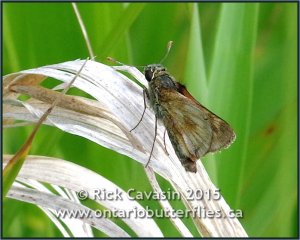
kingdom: Animalia
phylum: Arthropoda
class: Insecta
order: Lepidoptera
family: Hesperiidae
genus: Polites
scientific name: Polites
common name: Long Dash Skipper
